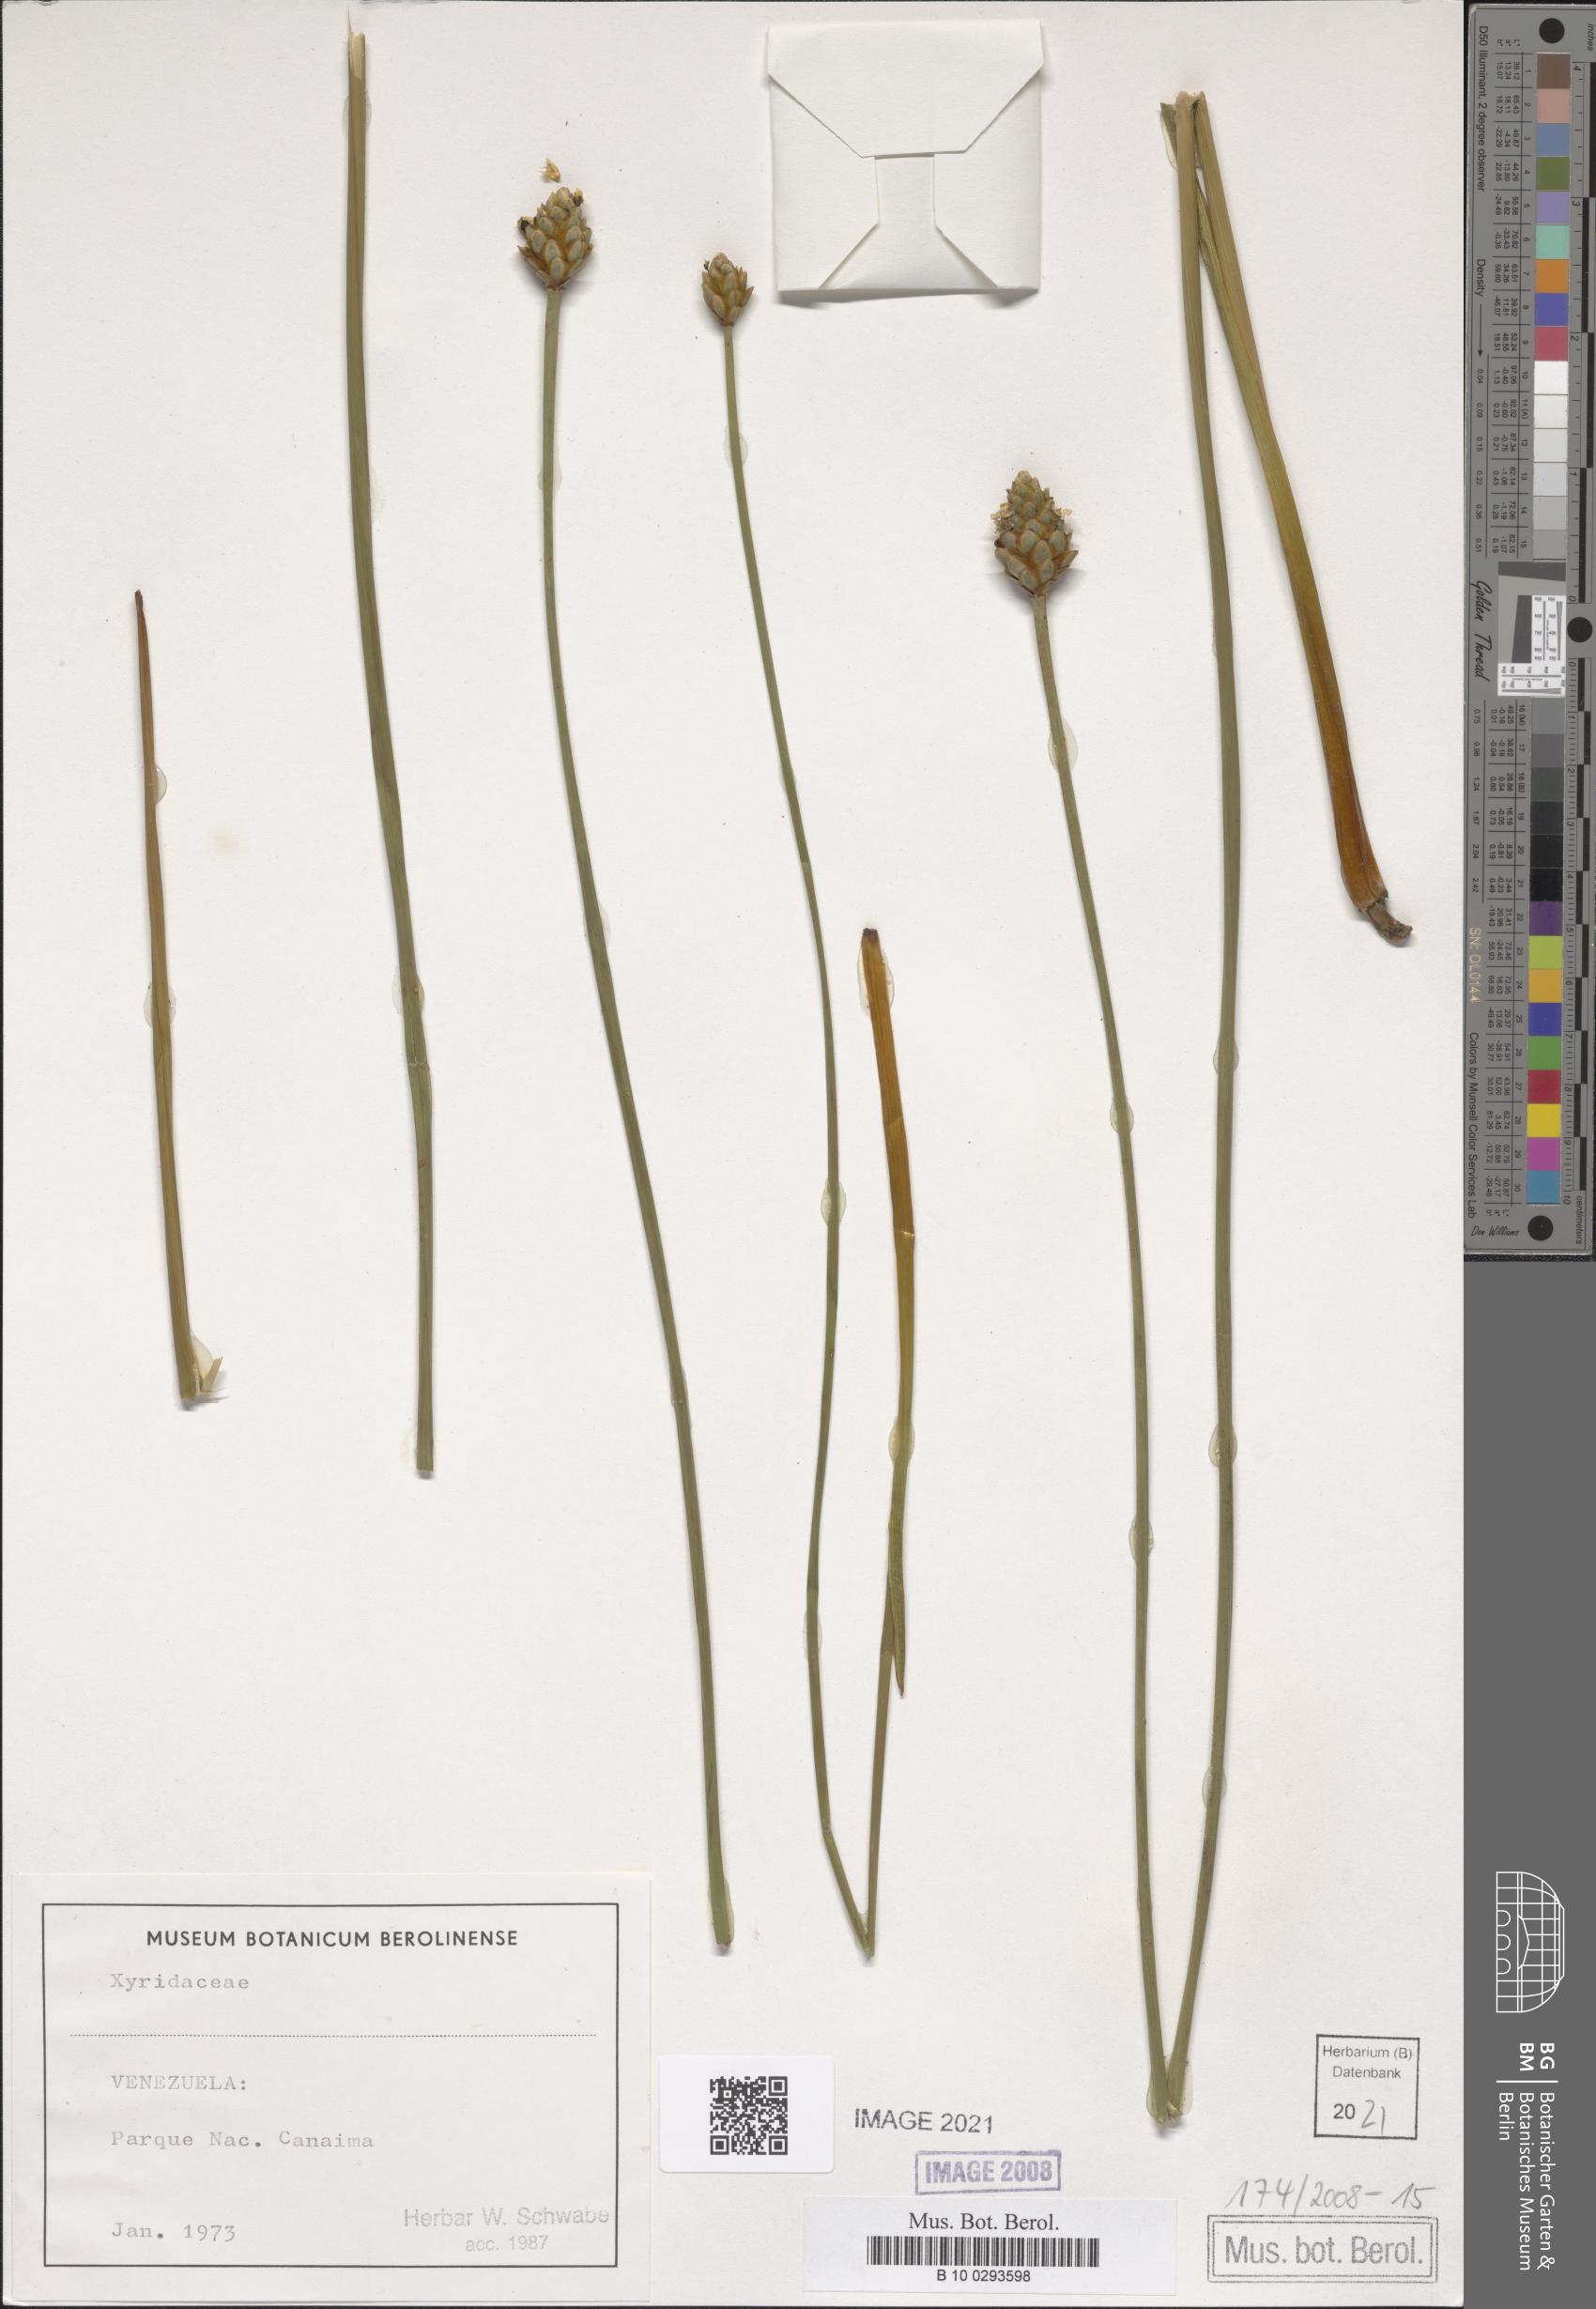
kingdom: Plantae
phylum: Tracheophyta
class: Liliopsida
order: Poales
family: Xyridaceae
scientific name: Xyridaceae
